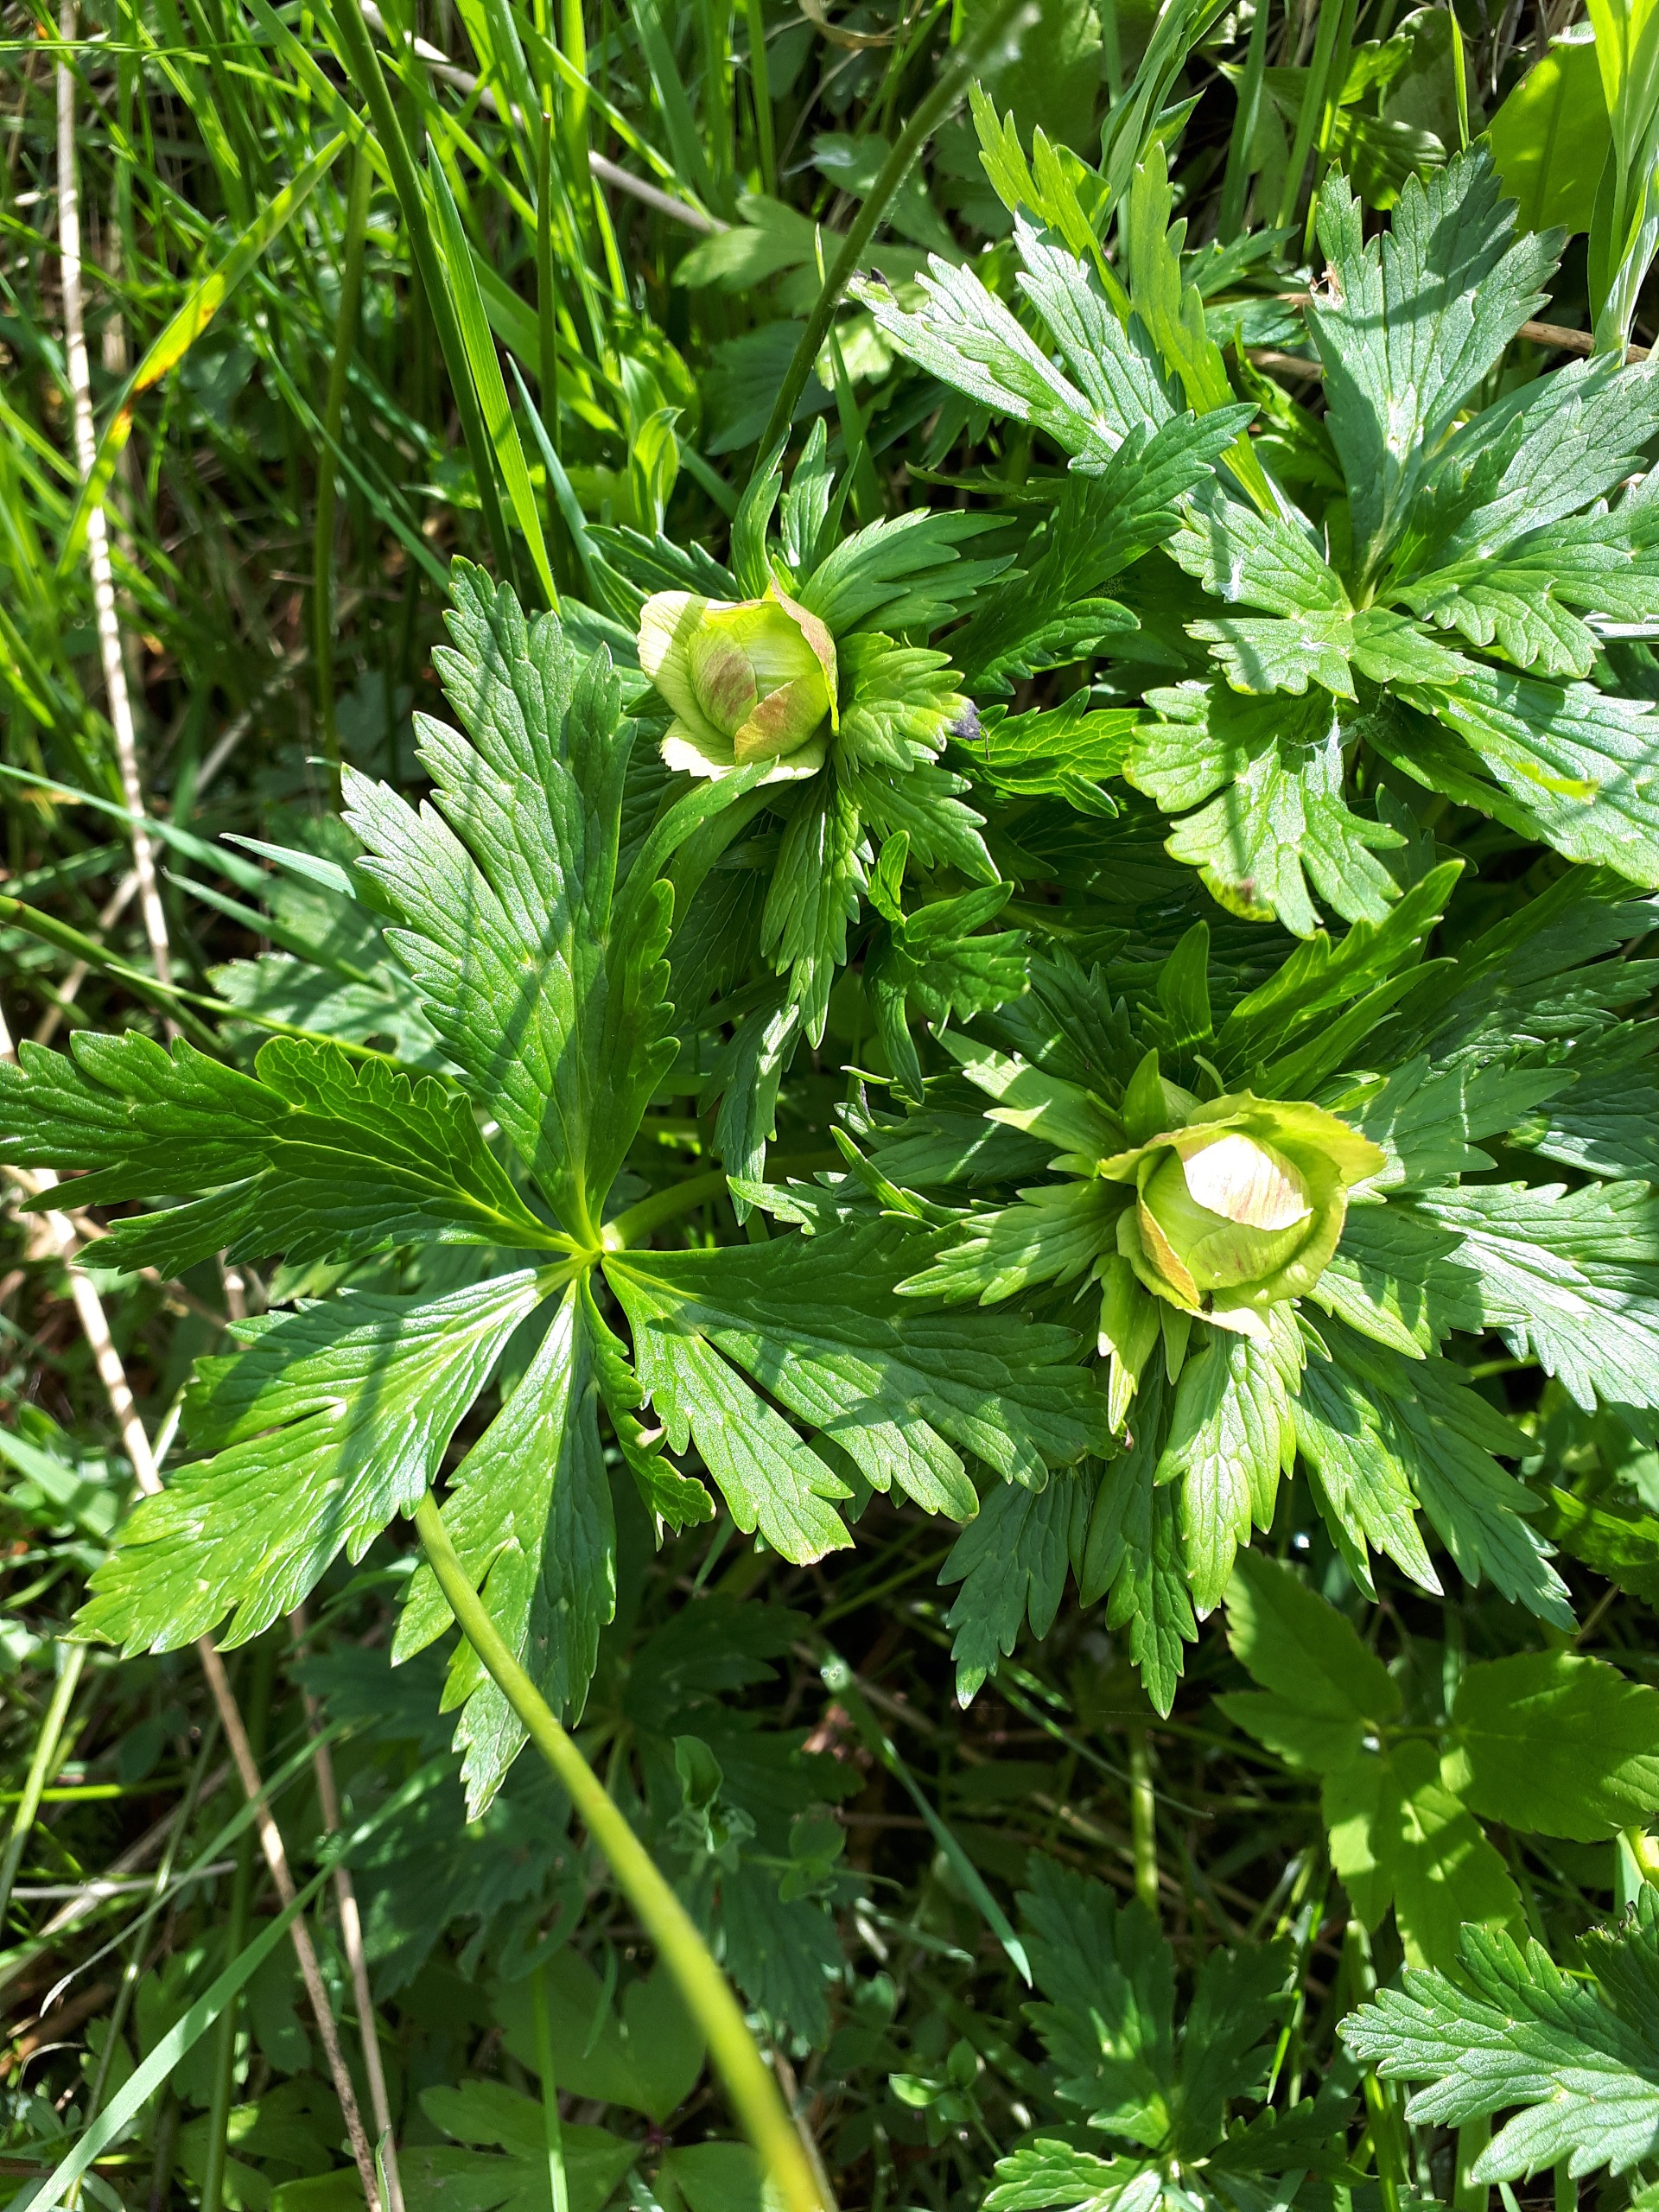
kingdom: Plantae
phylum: Tracheophyta
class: Magnoliopsida
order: Ranunculales
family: Ranunculaceae
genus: Trollius
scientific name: Trollius europaeus
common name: Engblomme
